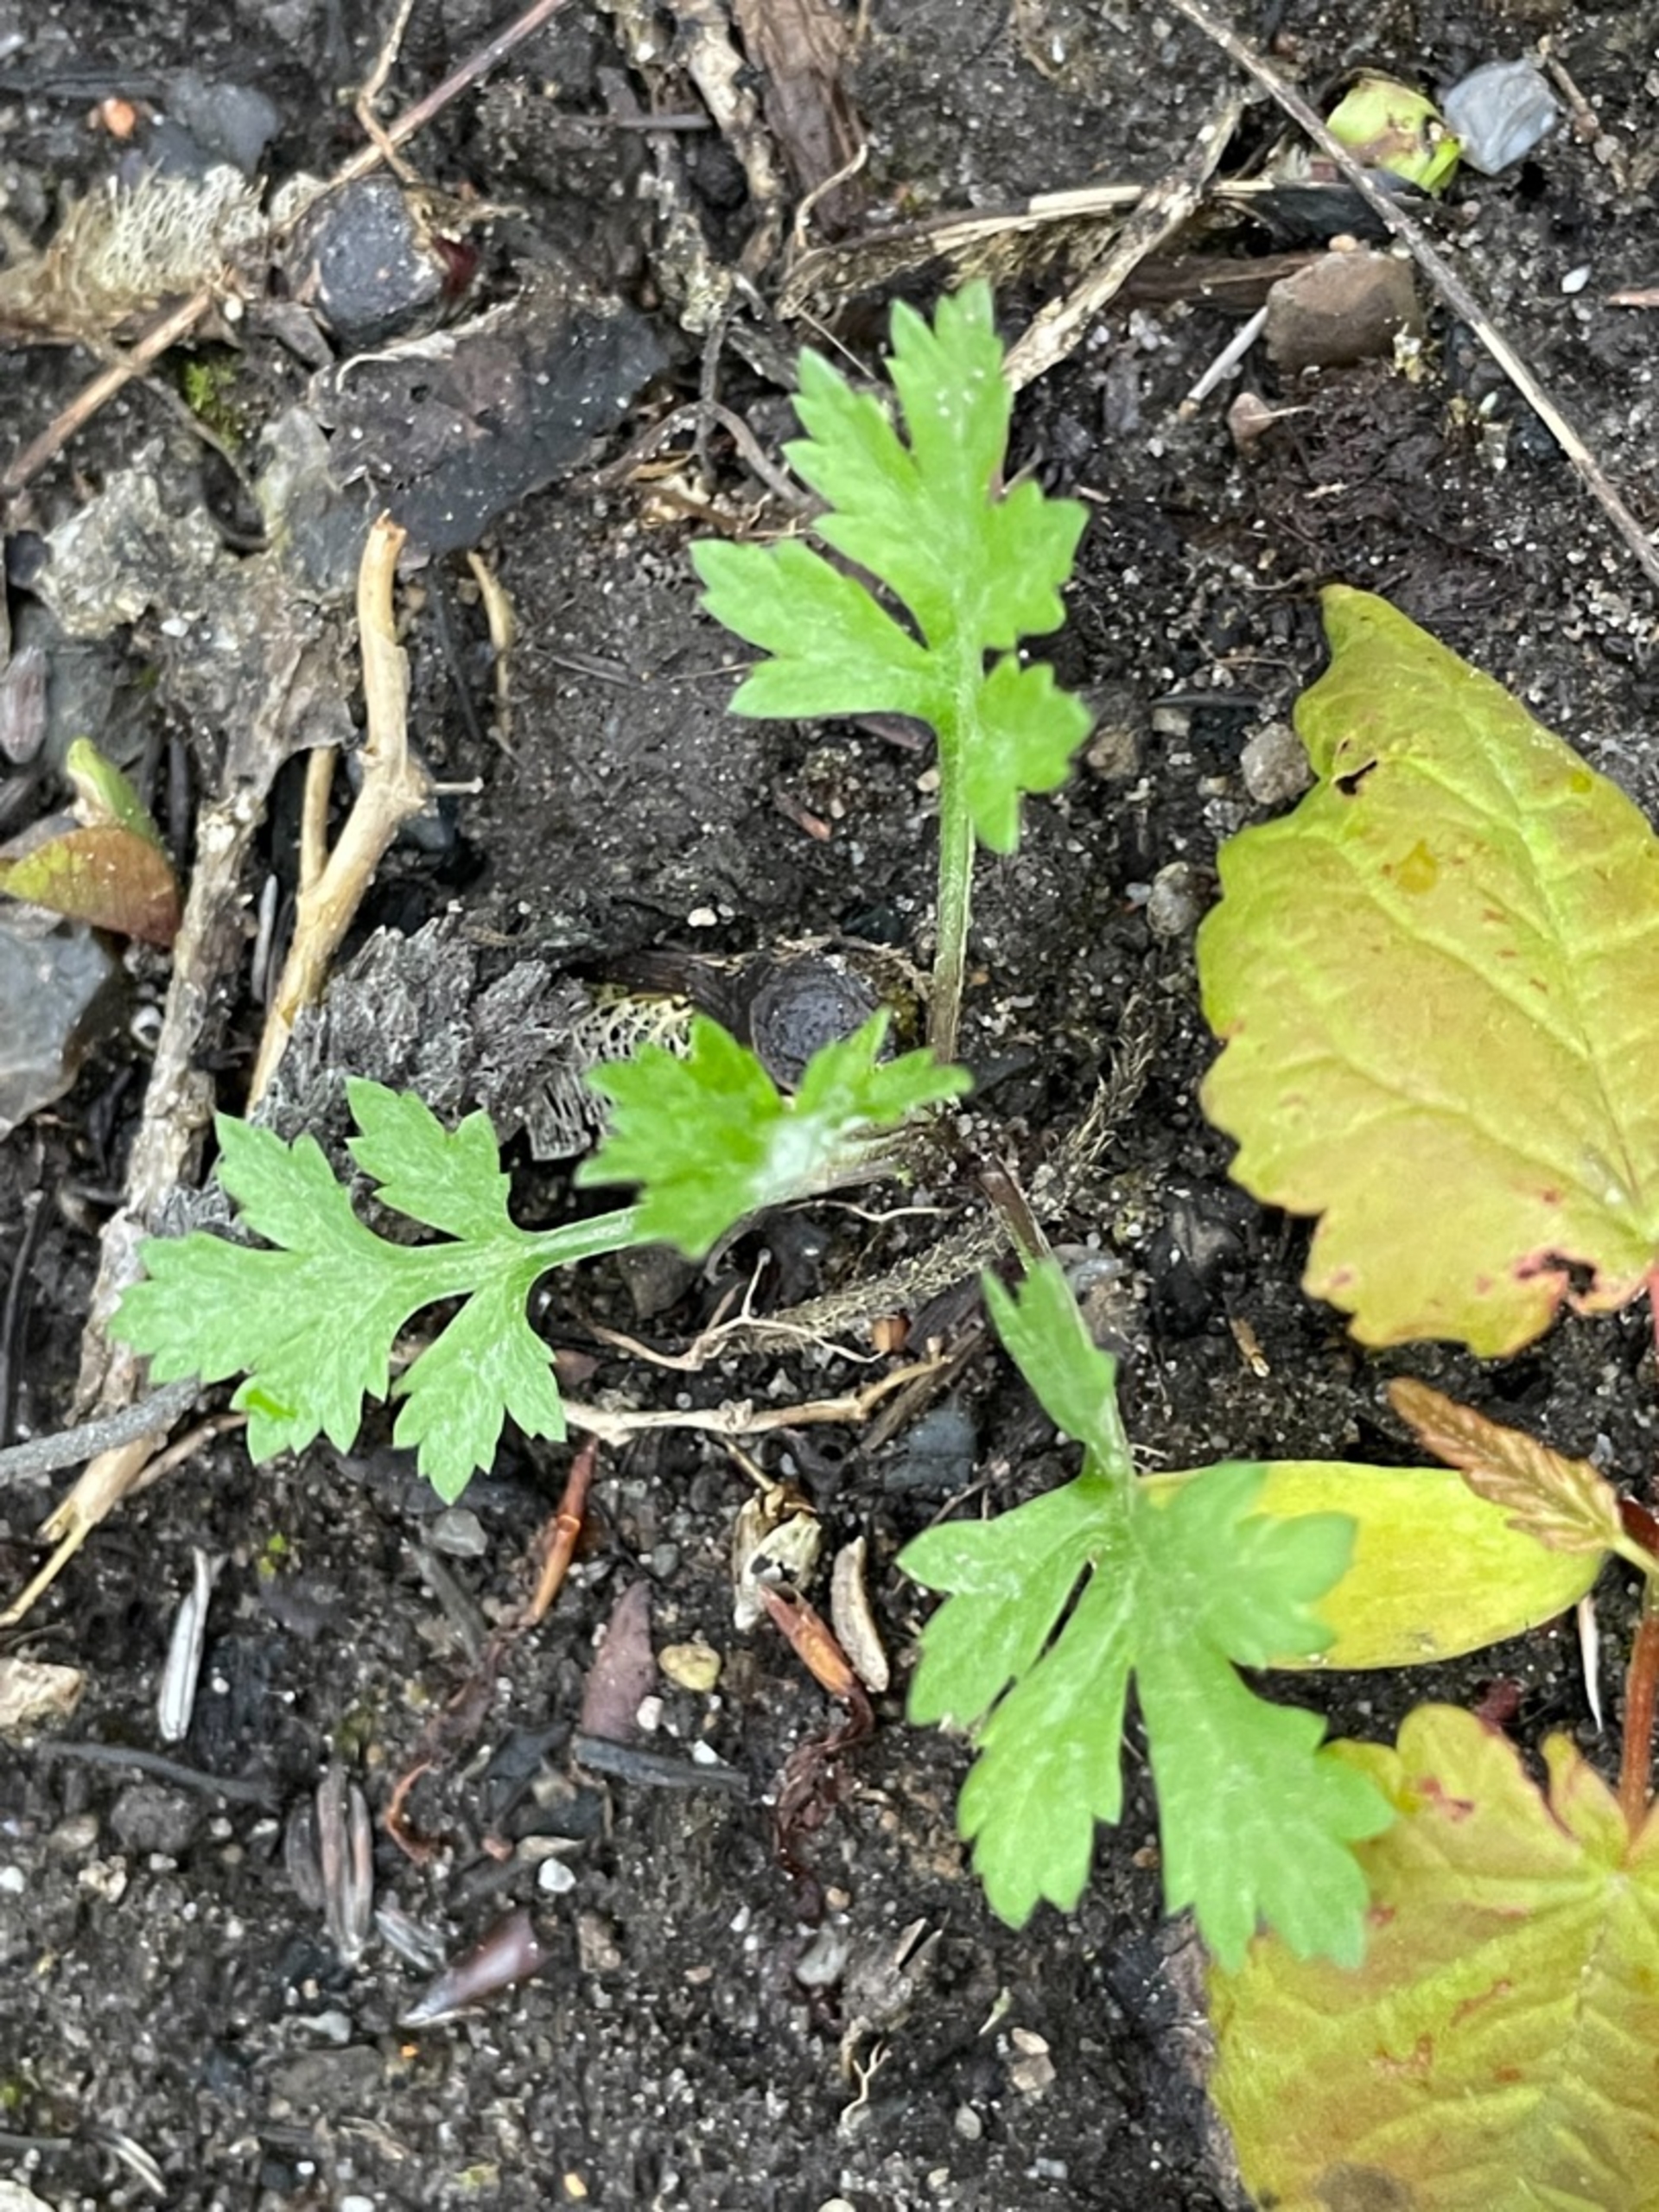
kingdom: Plantae
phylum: Tracheophyta
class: Magnoliopsida
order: Asterales
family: Asteraceae
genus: Artemisia
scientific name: Artemisia vulgaris
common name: Grå-bynke
